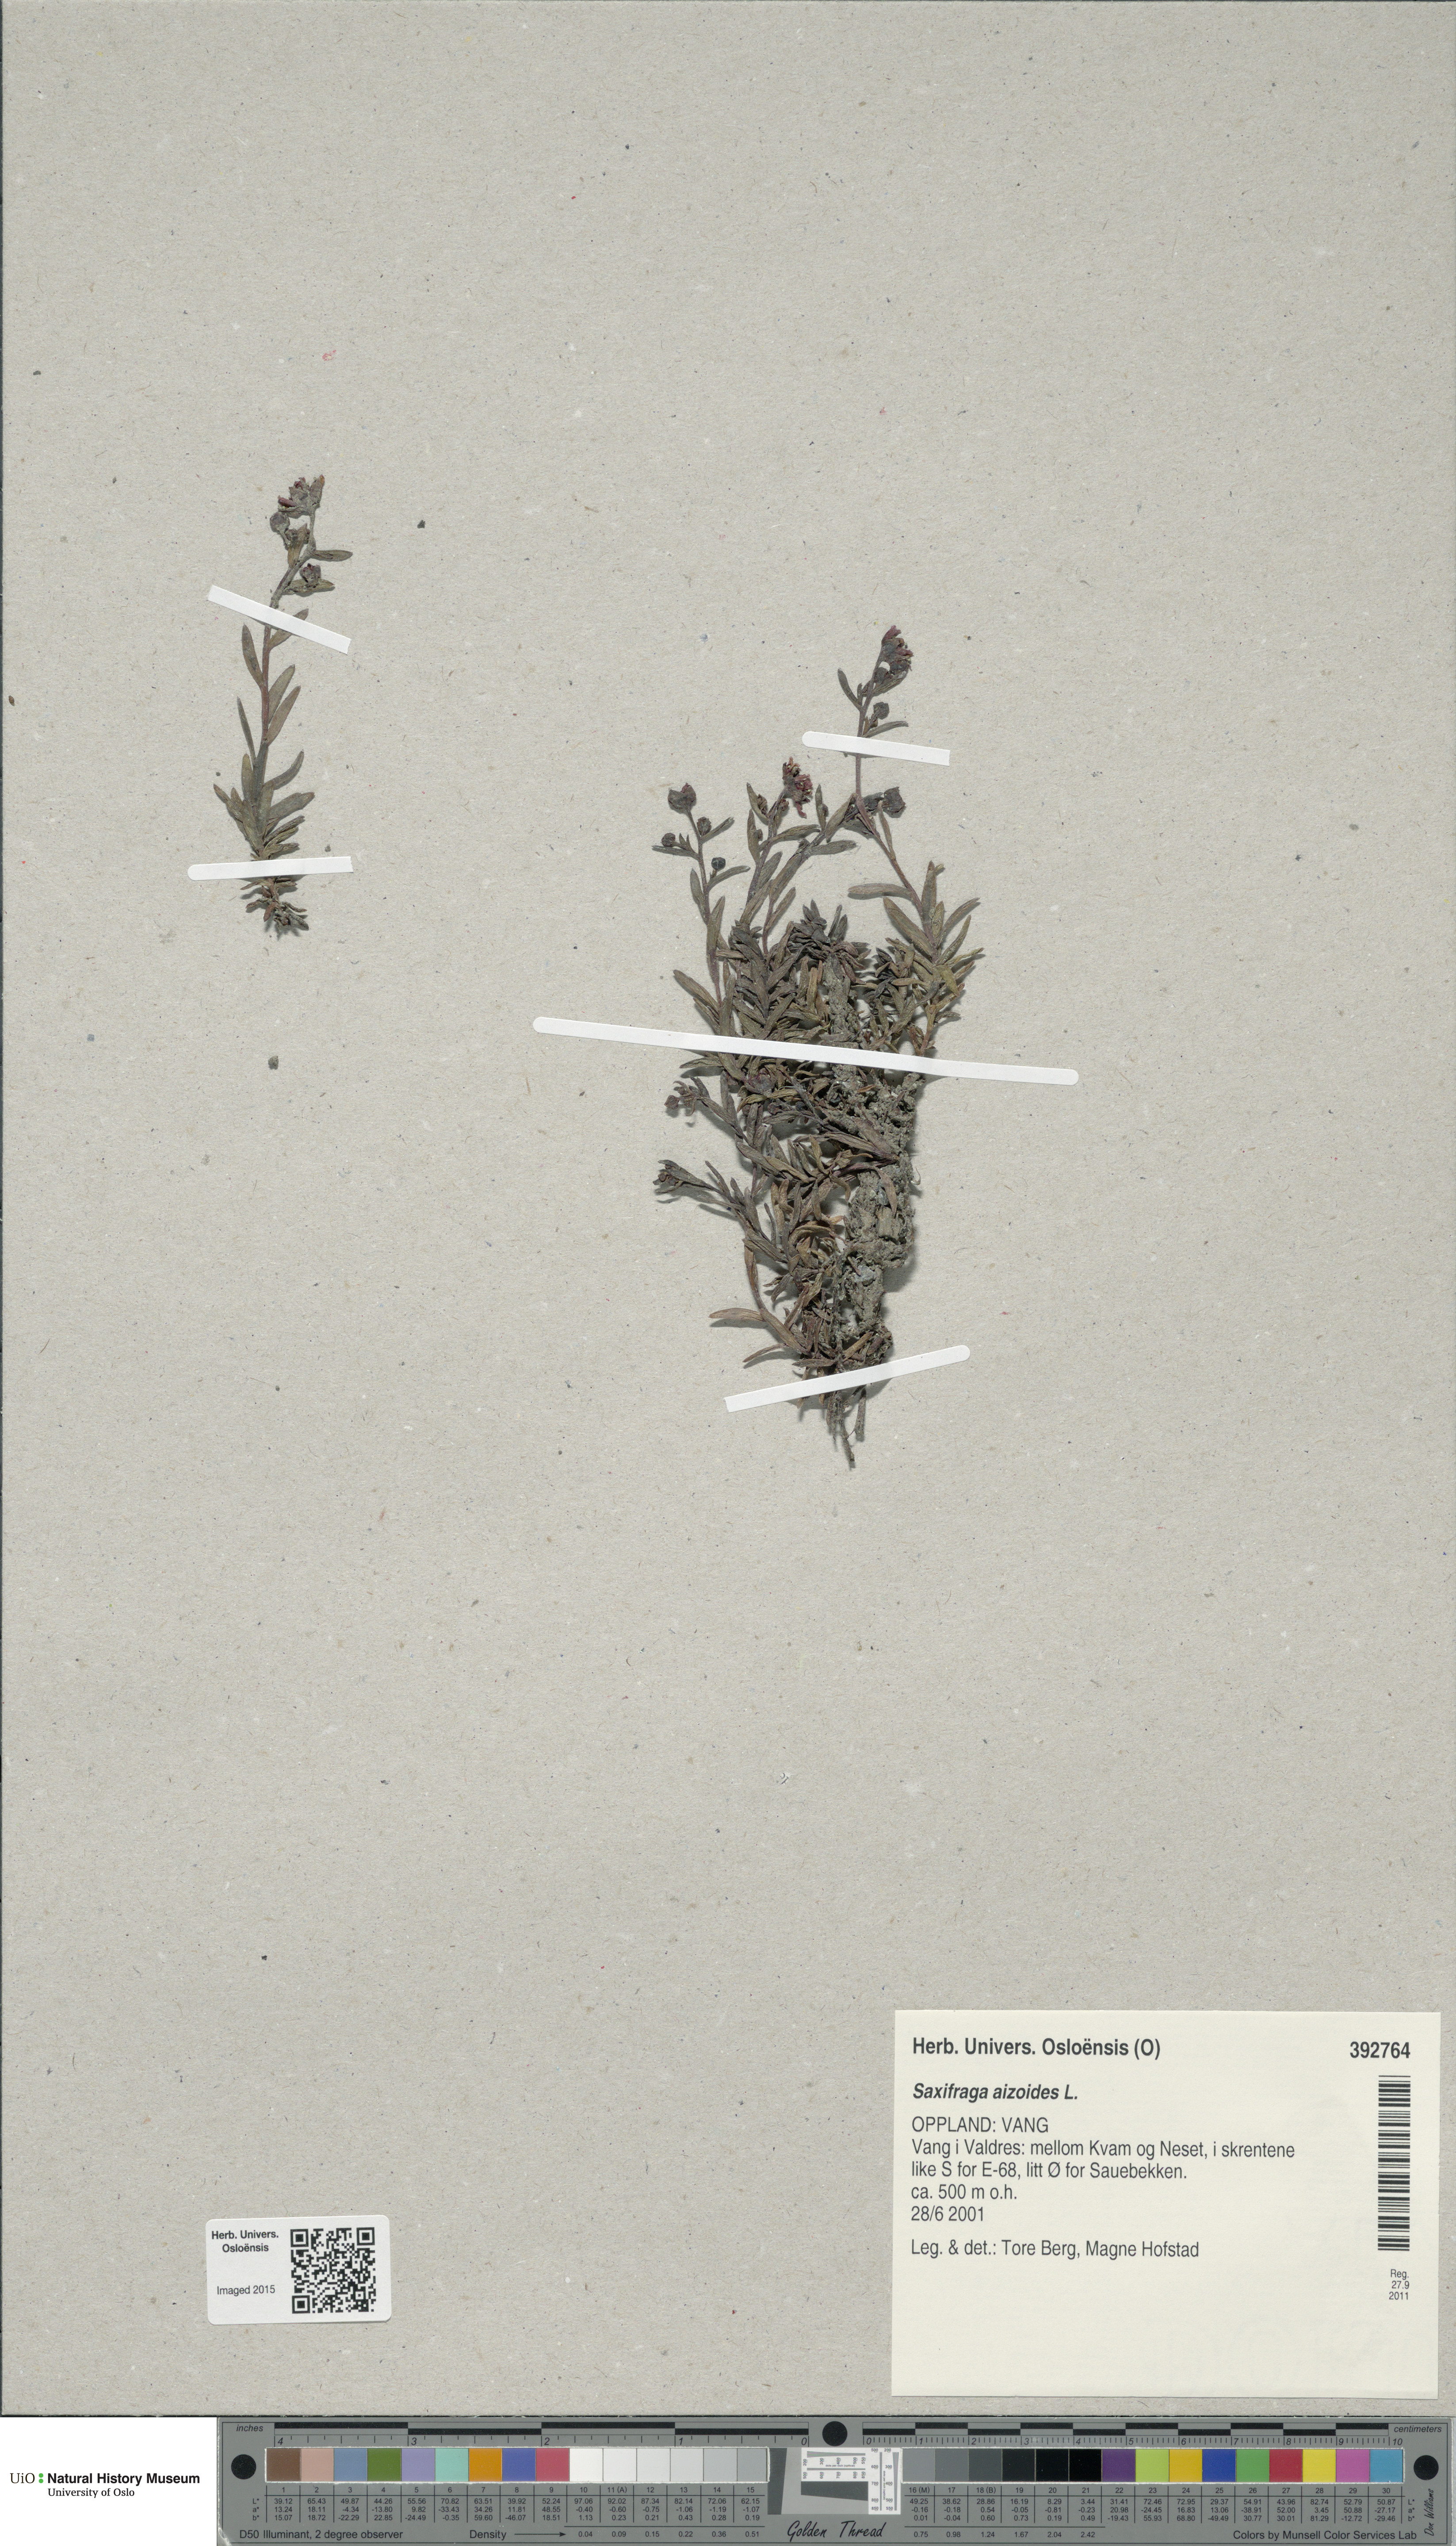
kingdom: Plantae
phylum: Tracheophyta
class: Magnoliopsida
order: Saxifragales
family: Saxifragaceae
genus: Saxifraga
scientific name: Saxifraga aizoides
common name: Yellow mountain saxifrage
